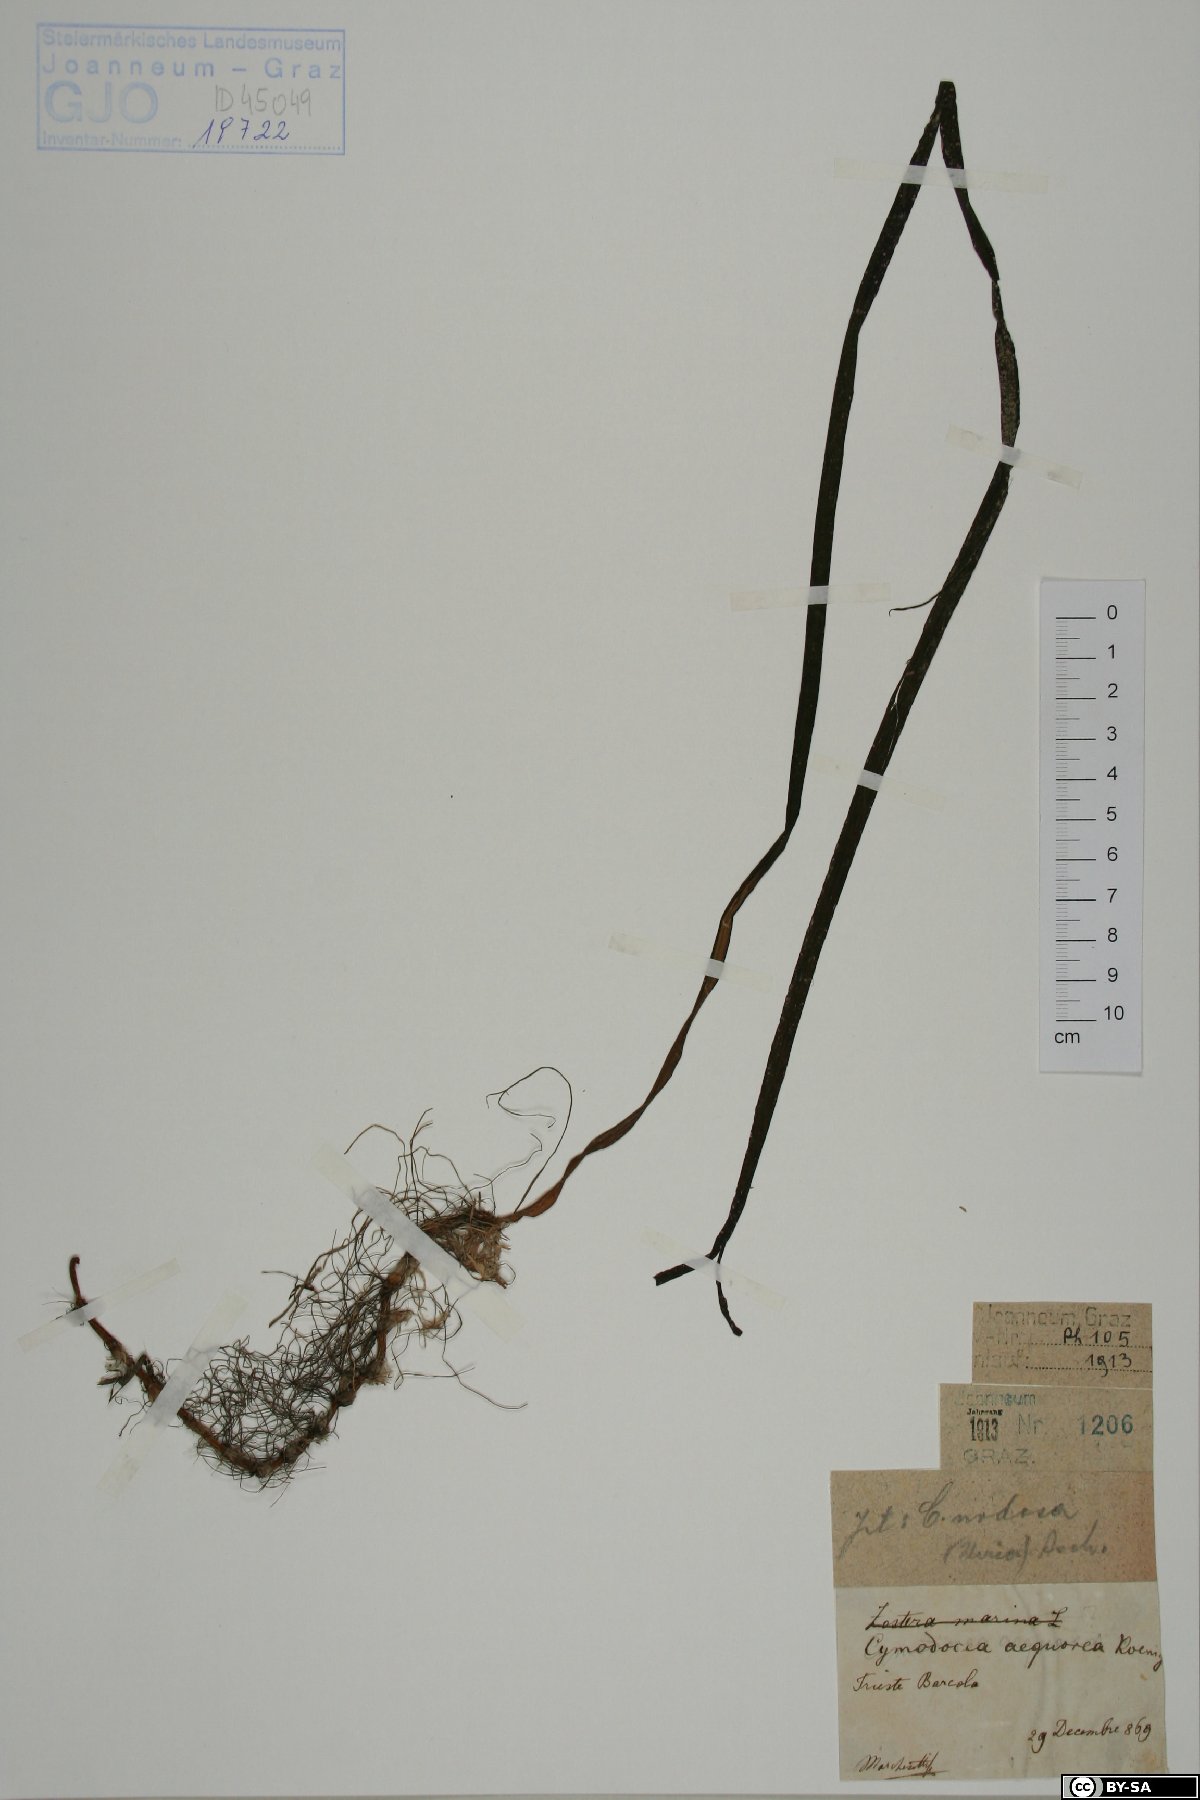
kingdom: Plantae
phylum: Tracheophyta
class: Liliopsida
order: Alismatales
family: Cymodoceaceae
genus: Cymodocea
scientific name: Cymodocea nodosa
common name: Slender seagrass
